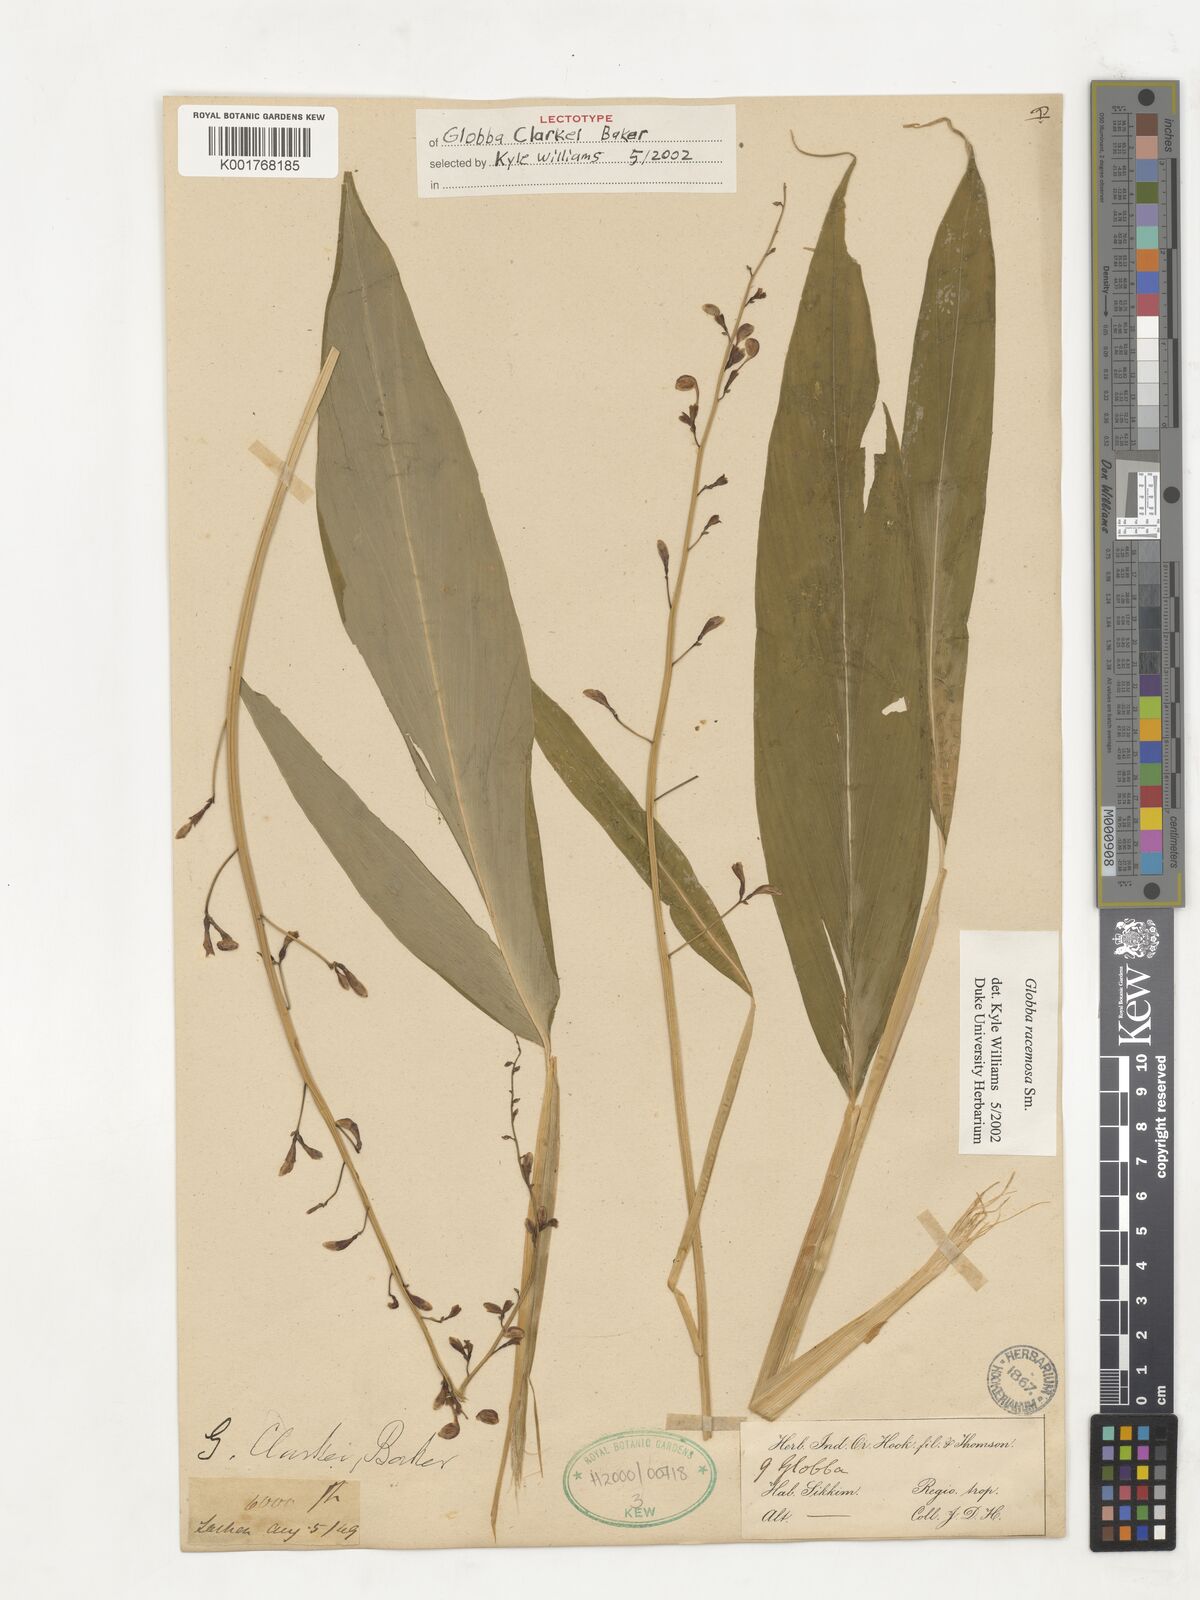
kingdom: Plantae
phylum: Tracheophyta
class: Liliopsida
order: Zingiberales
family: Zingiberaceae
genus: Globba
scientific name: Globba clarkei
